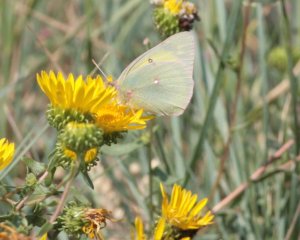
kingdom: Animalia
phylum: Arthropoda
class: Insecta
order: Lepidoptera
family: Pieridae
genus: Colias
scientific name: Colias philodice
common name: Clouded Sulphur
